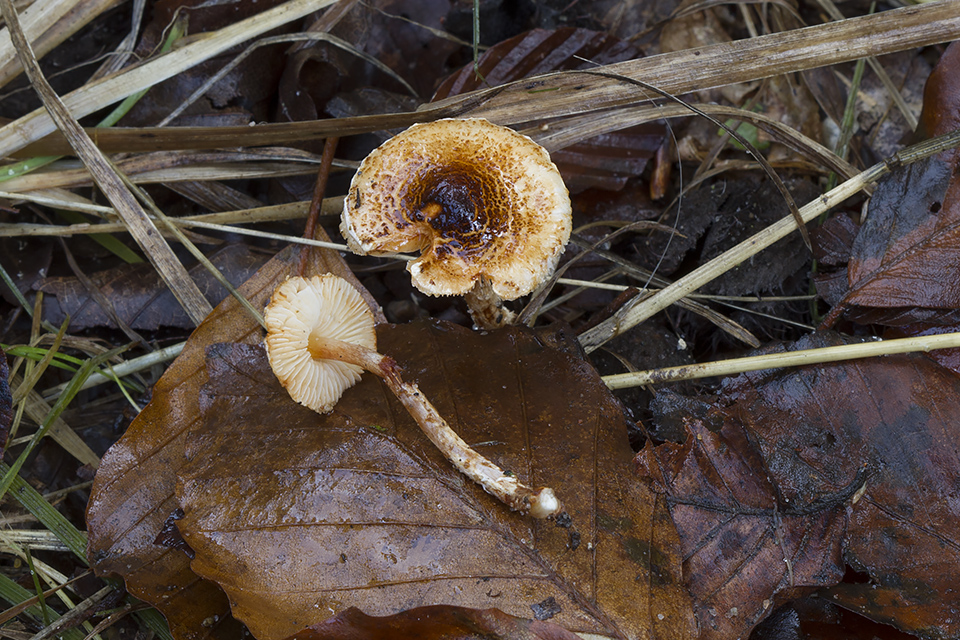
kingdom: Fungi
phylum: Basidiomycota
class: Agaricomycetes
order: Agaricales
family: Agaricaceae
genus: Lepiota
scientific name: Lepiota castanea
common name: kastaniebrun parasolhat
